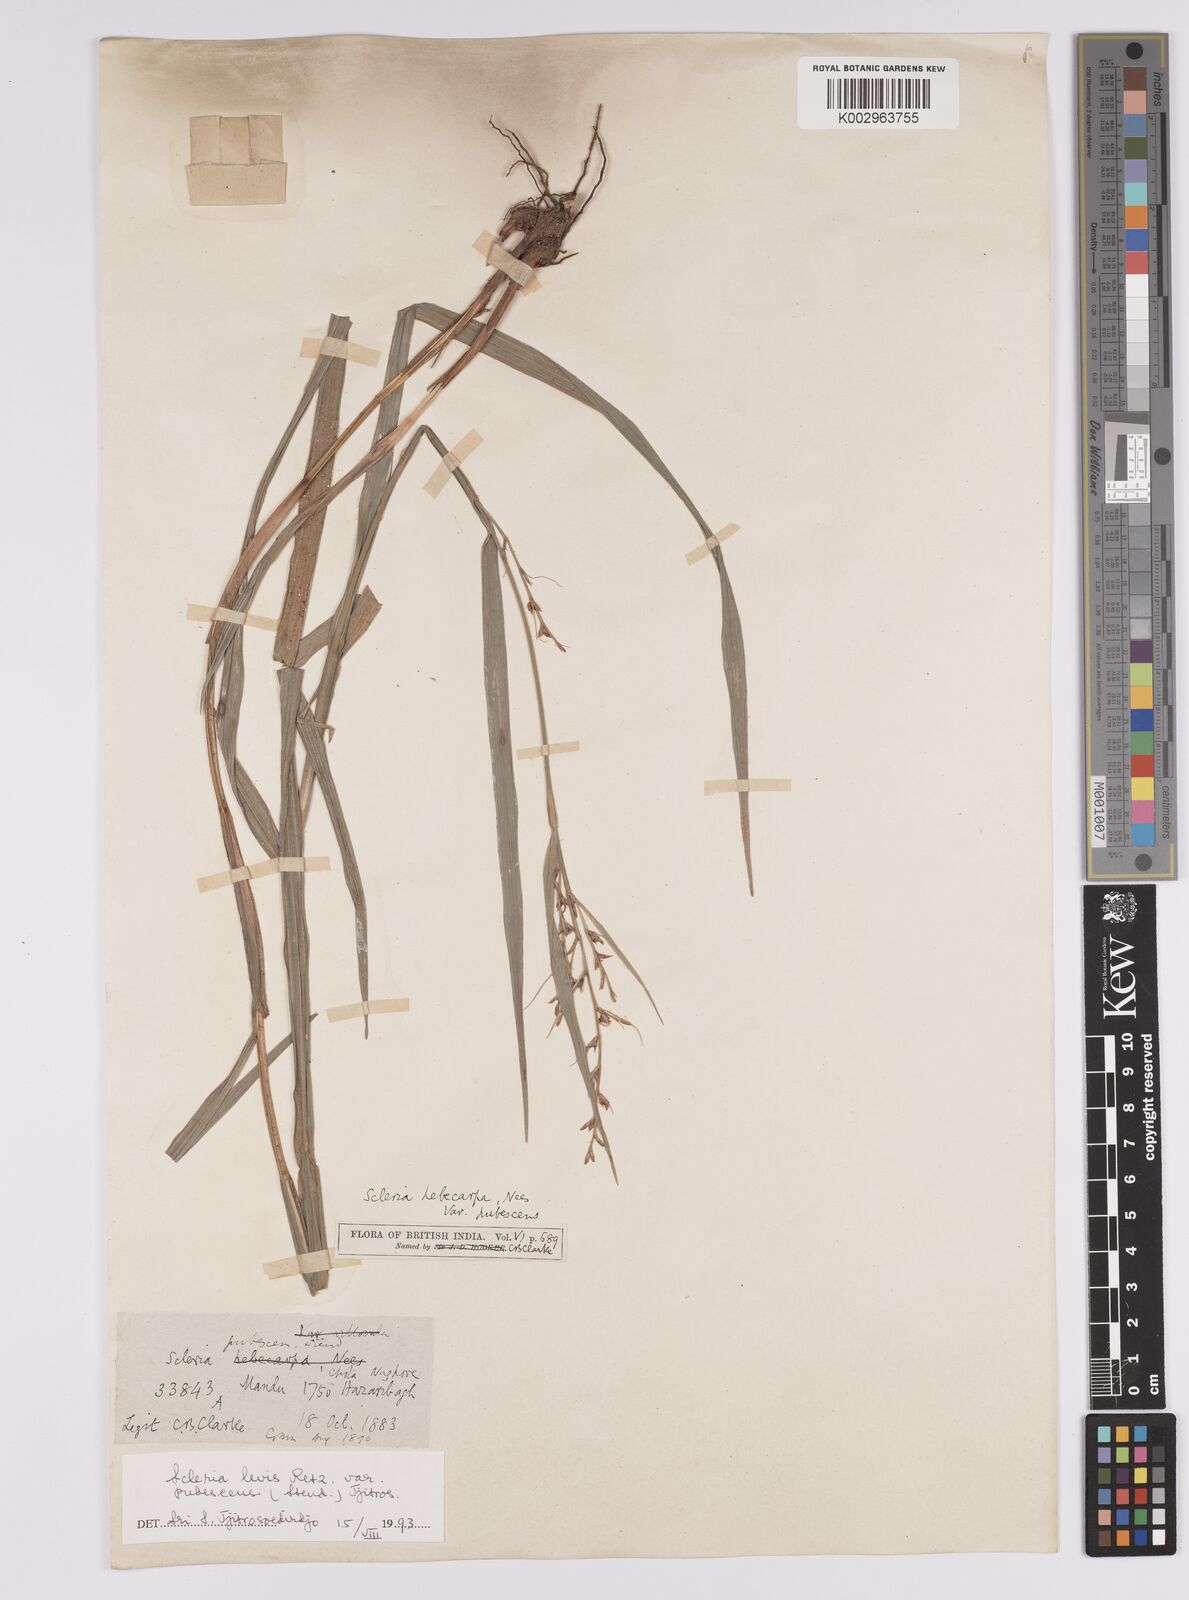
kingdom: Plantae
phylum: Tracheophyta
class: Liliopsida
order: Poales
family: Cyperaceae
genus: Scleria
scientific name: Scleria levis
